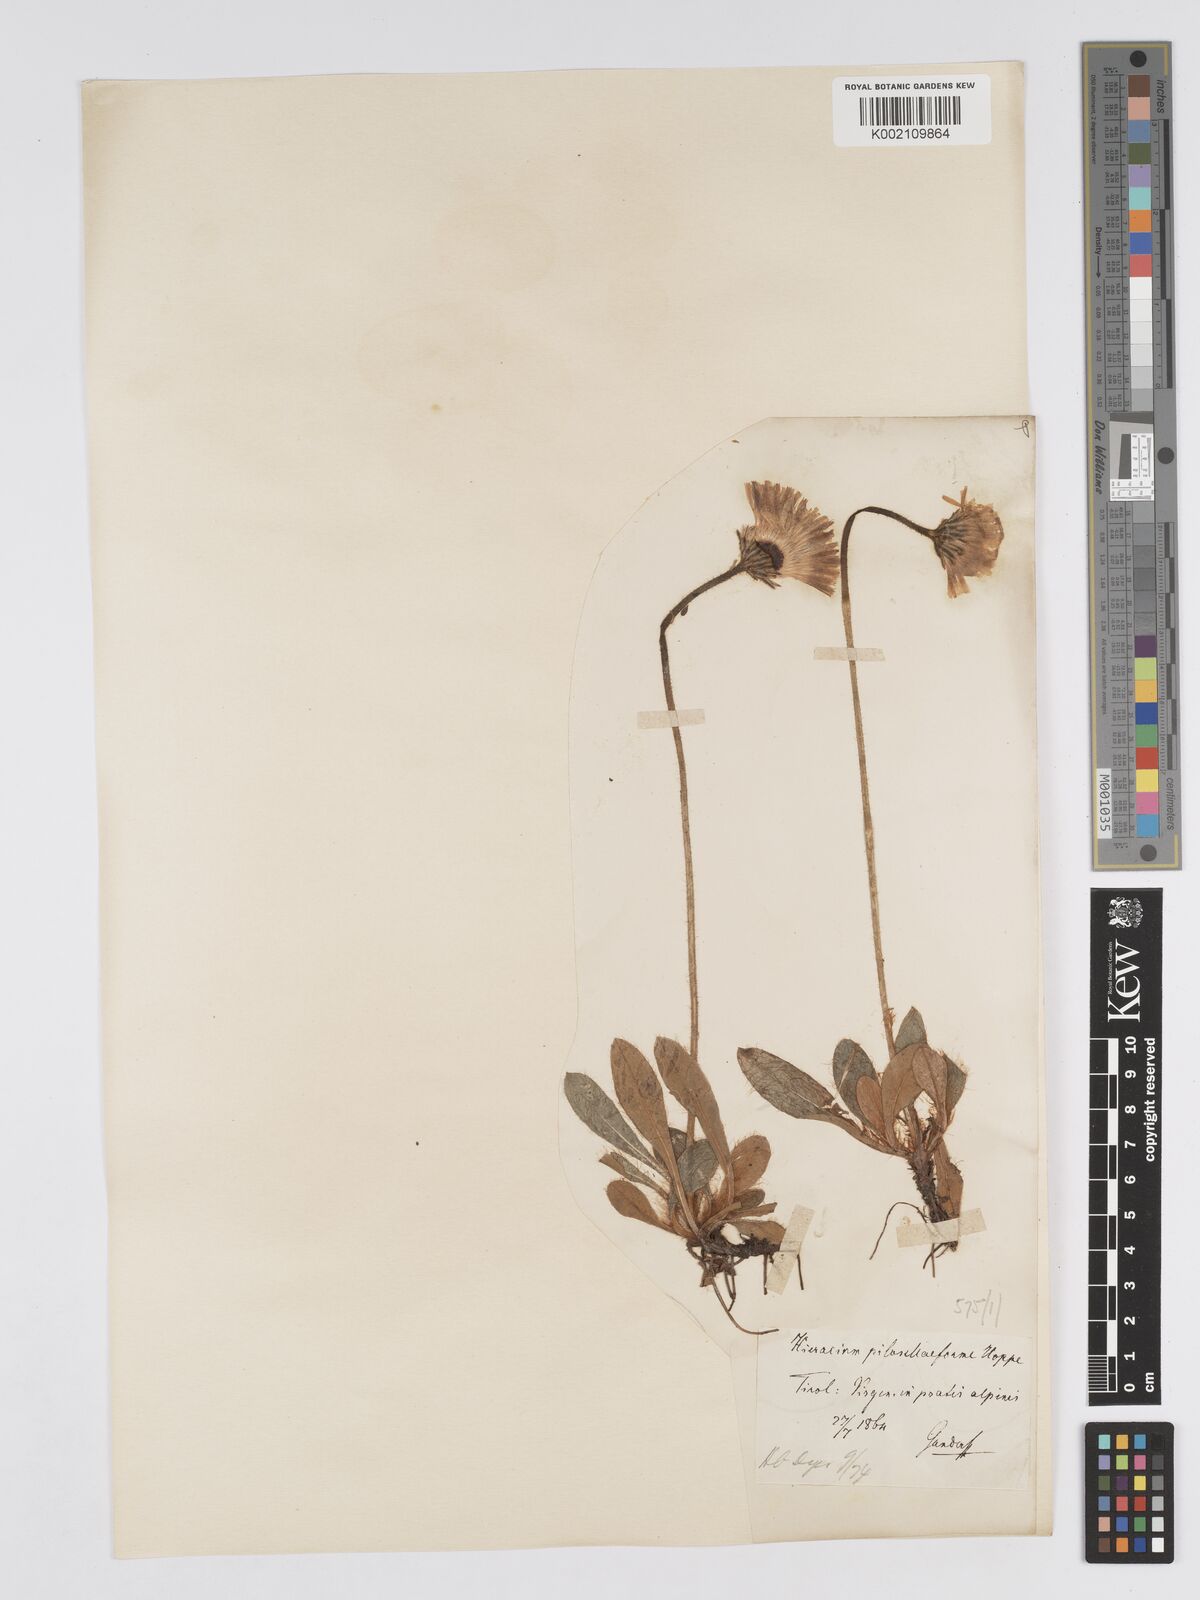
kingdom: Plantae
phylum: Tracheophyta
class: Magnoliopsida
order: Asterales
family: Asteraceae
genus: Pilosella
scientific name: Pilosella hoppeana
